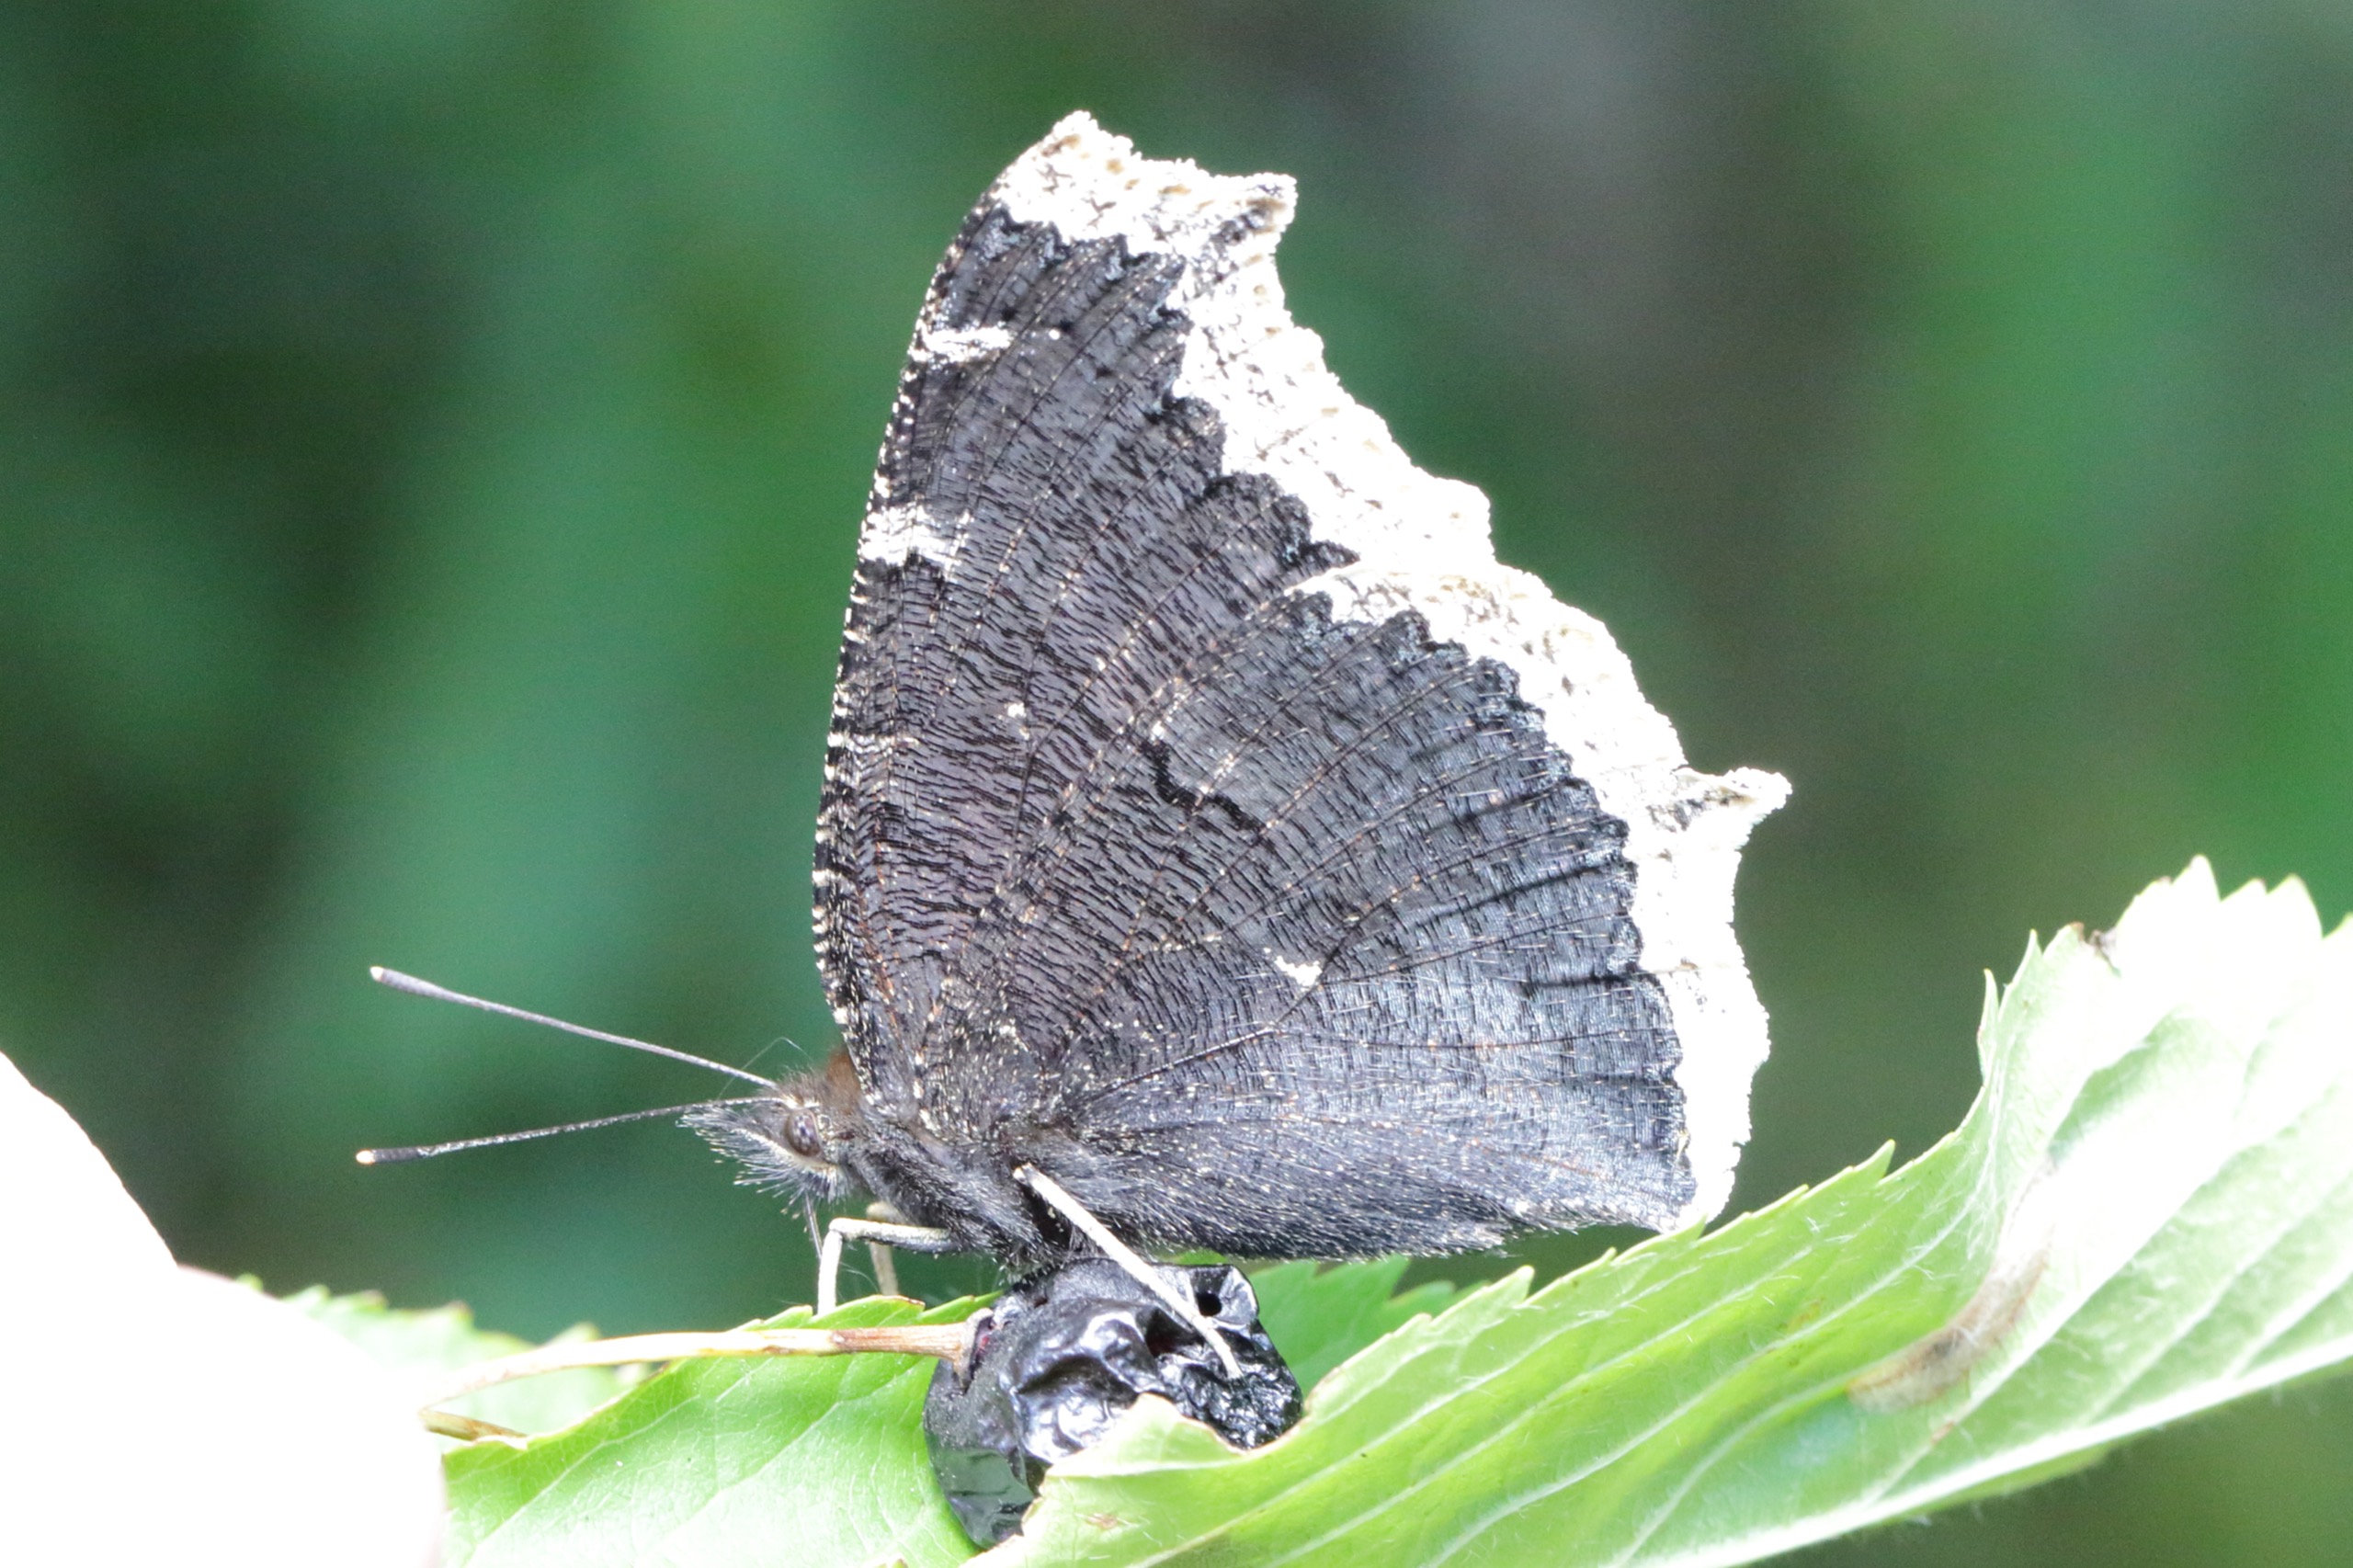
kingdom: Animalia
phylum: Arthropoda
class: Insecta
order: Lepidoptera
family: Nymphalidae
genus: Nymphalis
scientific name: Nymphalis antiopa
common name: Sørgekåbe
